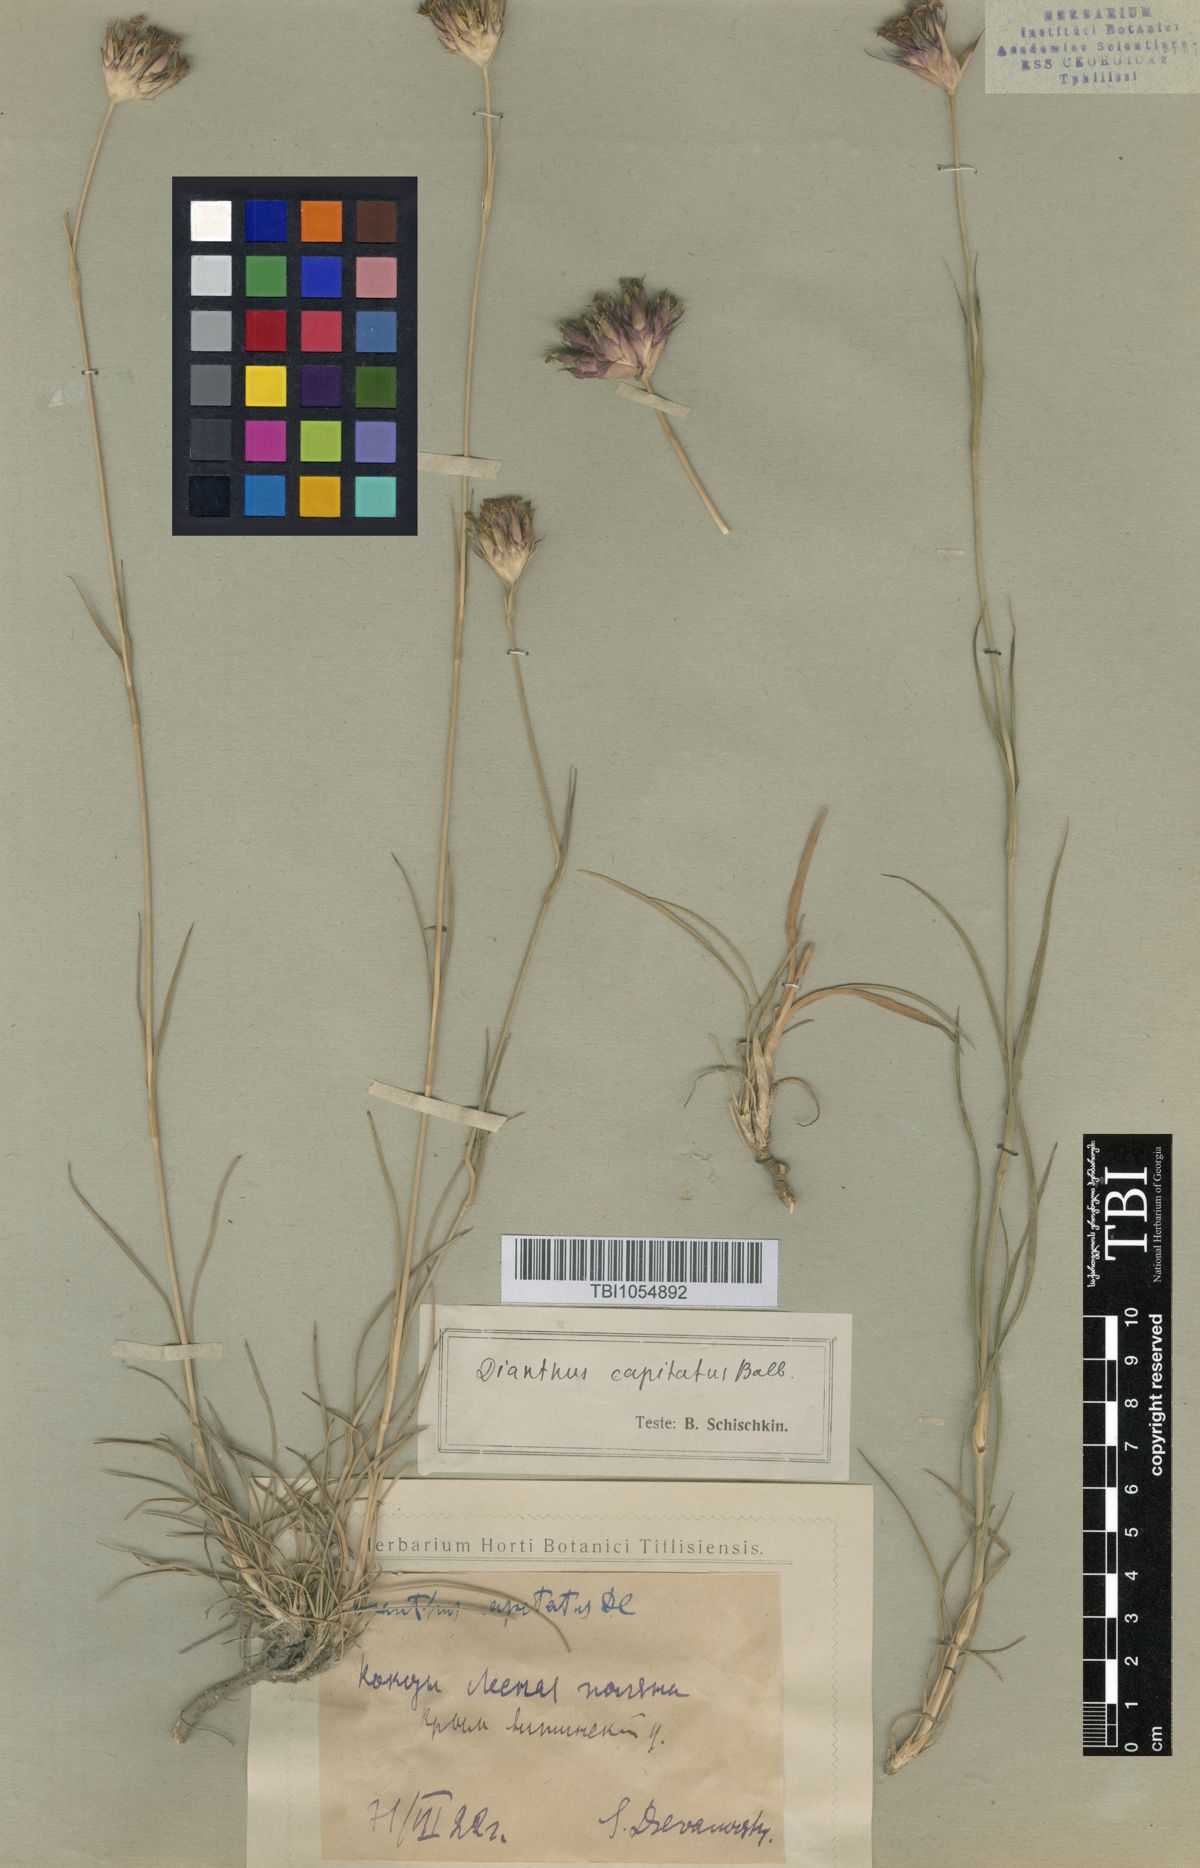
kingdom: Plantae
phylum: Tracheophyta
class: Magnoliopsida
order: Caryophyllales
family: Caryophyllaceae
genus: Dianthus
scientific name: Dianthus capitatus
